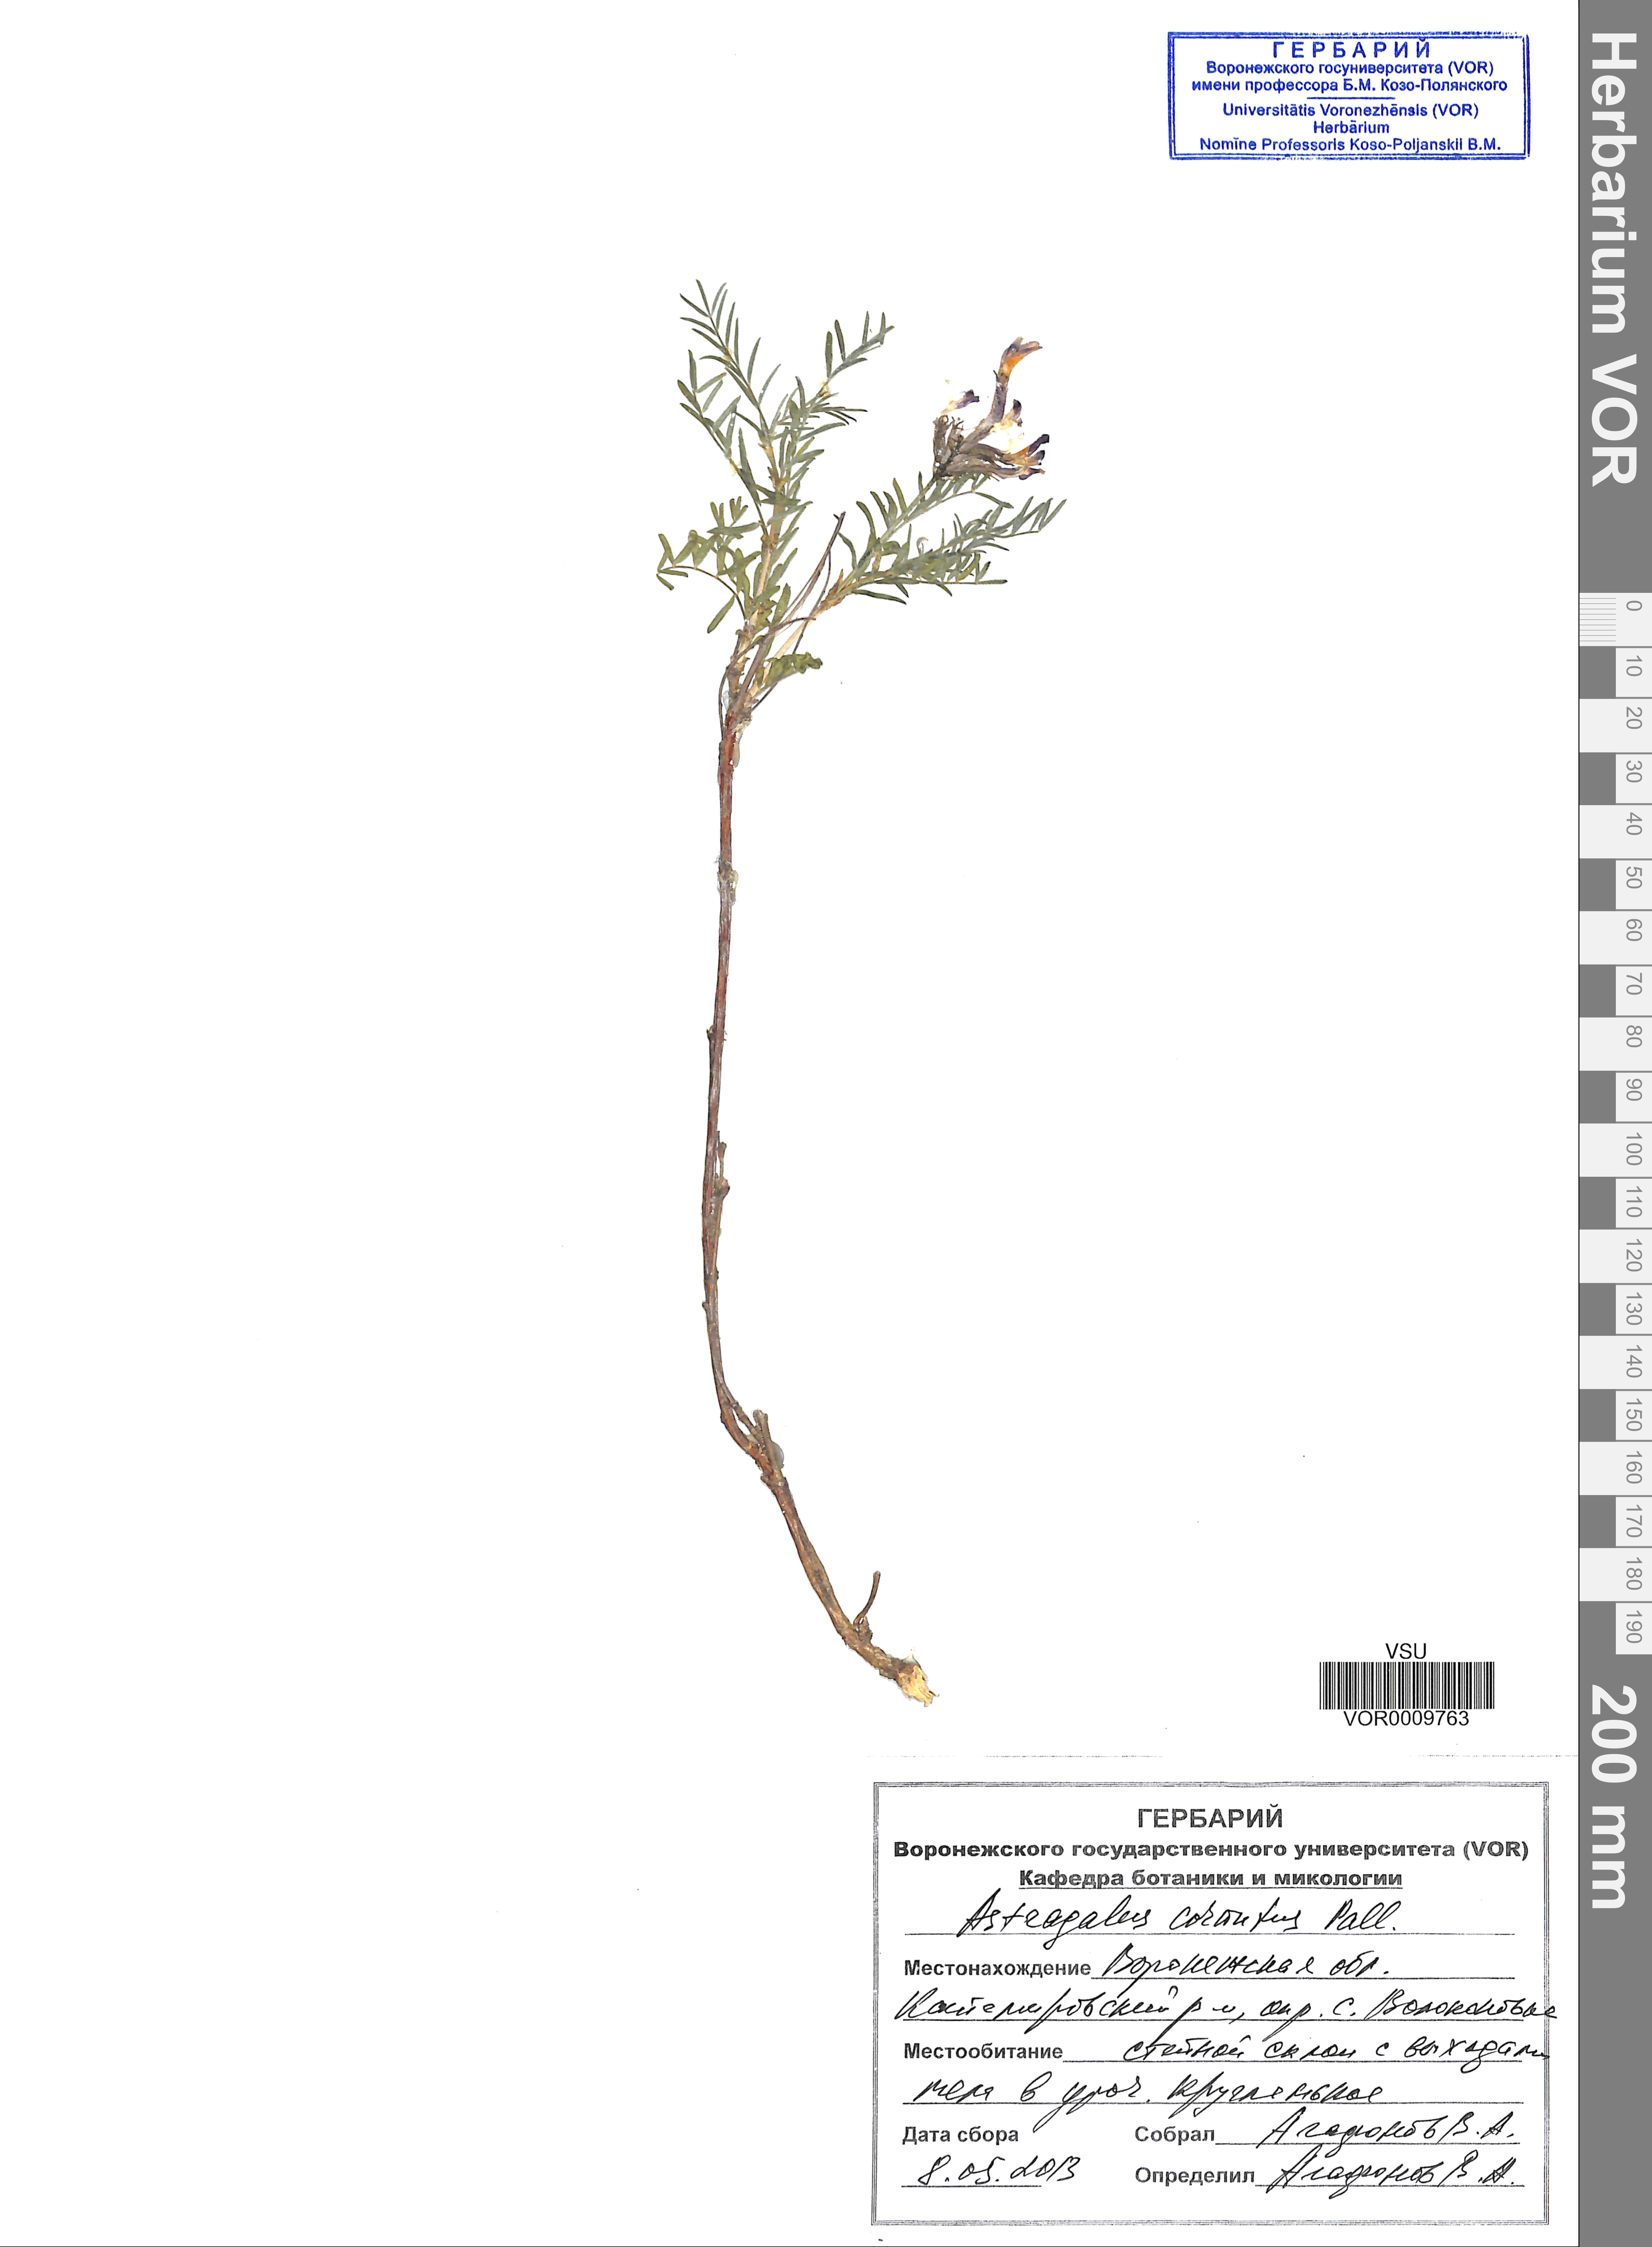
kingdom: Plantae
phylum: Tracheophyta
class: Magnoliopsida
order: Fabales
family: Fabaceae
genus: Astragalus
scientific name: Astragalus cornutus
